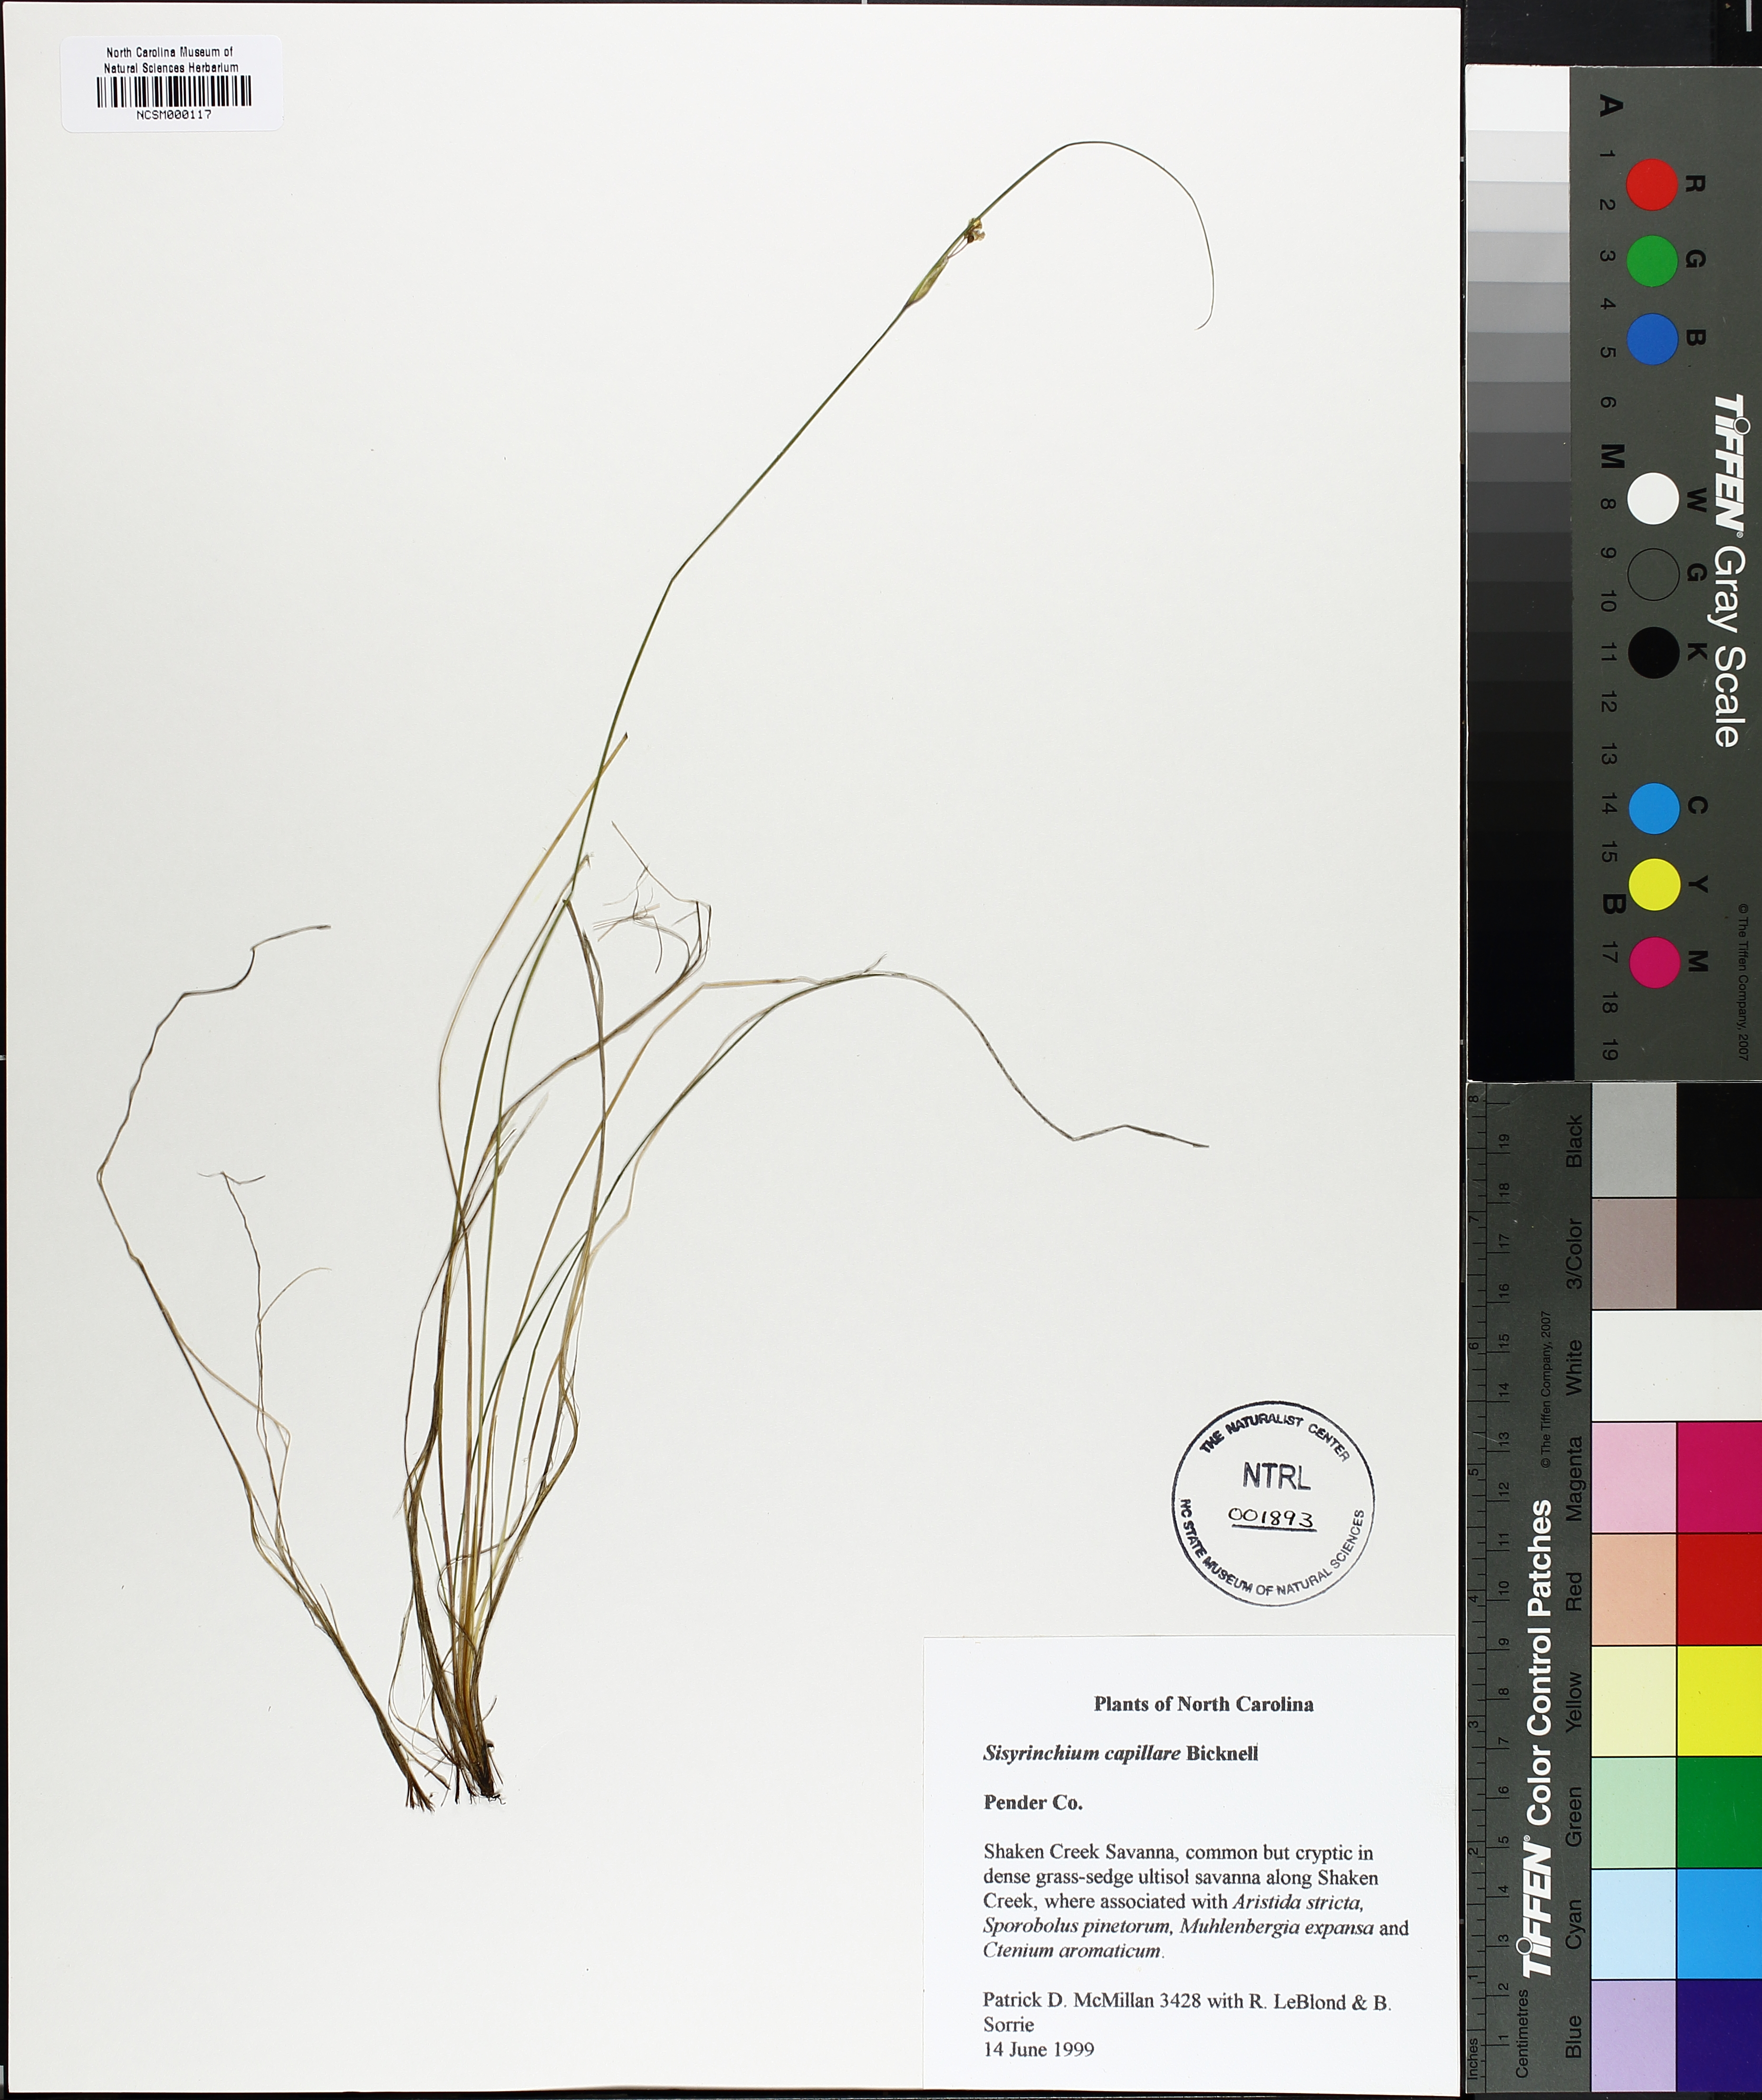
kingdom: Plantae
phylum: Tracheophyta
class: Liliopsida
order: Asparagales
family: Iridaceae
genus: Sisyrinchium
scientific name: Sisyrinchium capillare
